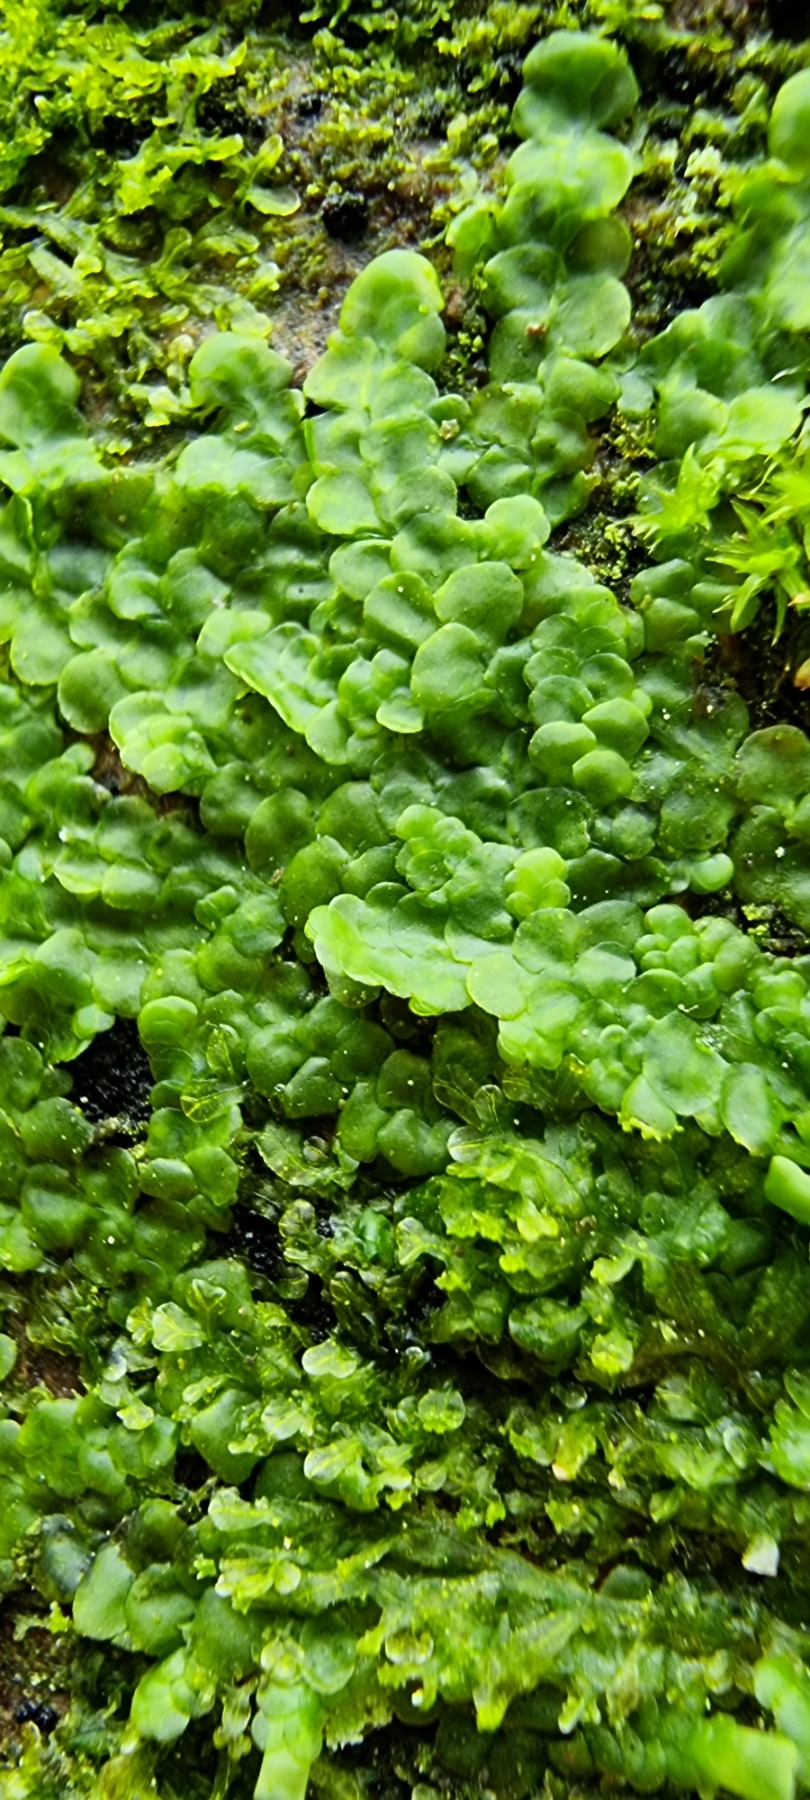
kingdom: Plantae
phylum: Marchantiophyta
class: Jungermanniopsida
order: Porellales
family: Radulaceae
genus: Radula
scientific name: Radula complanata
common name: Almindelig spartelmos
